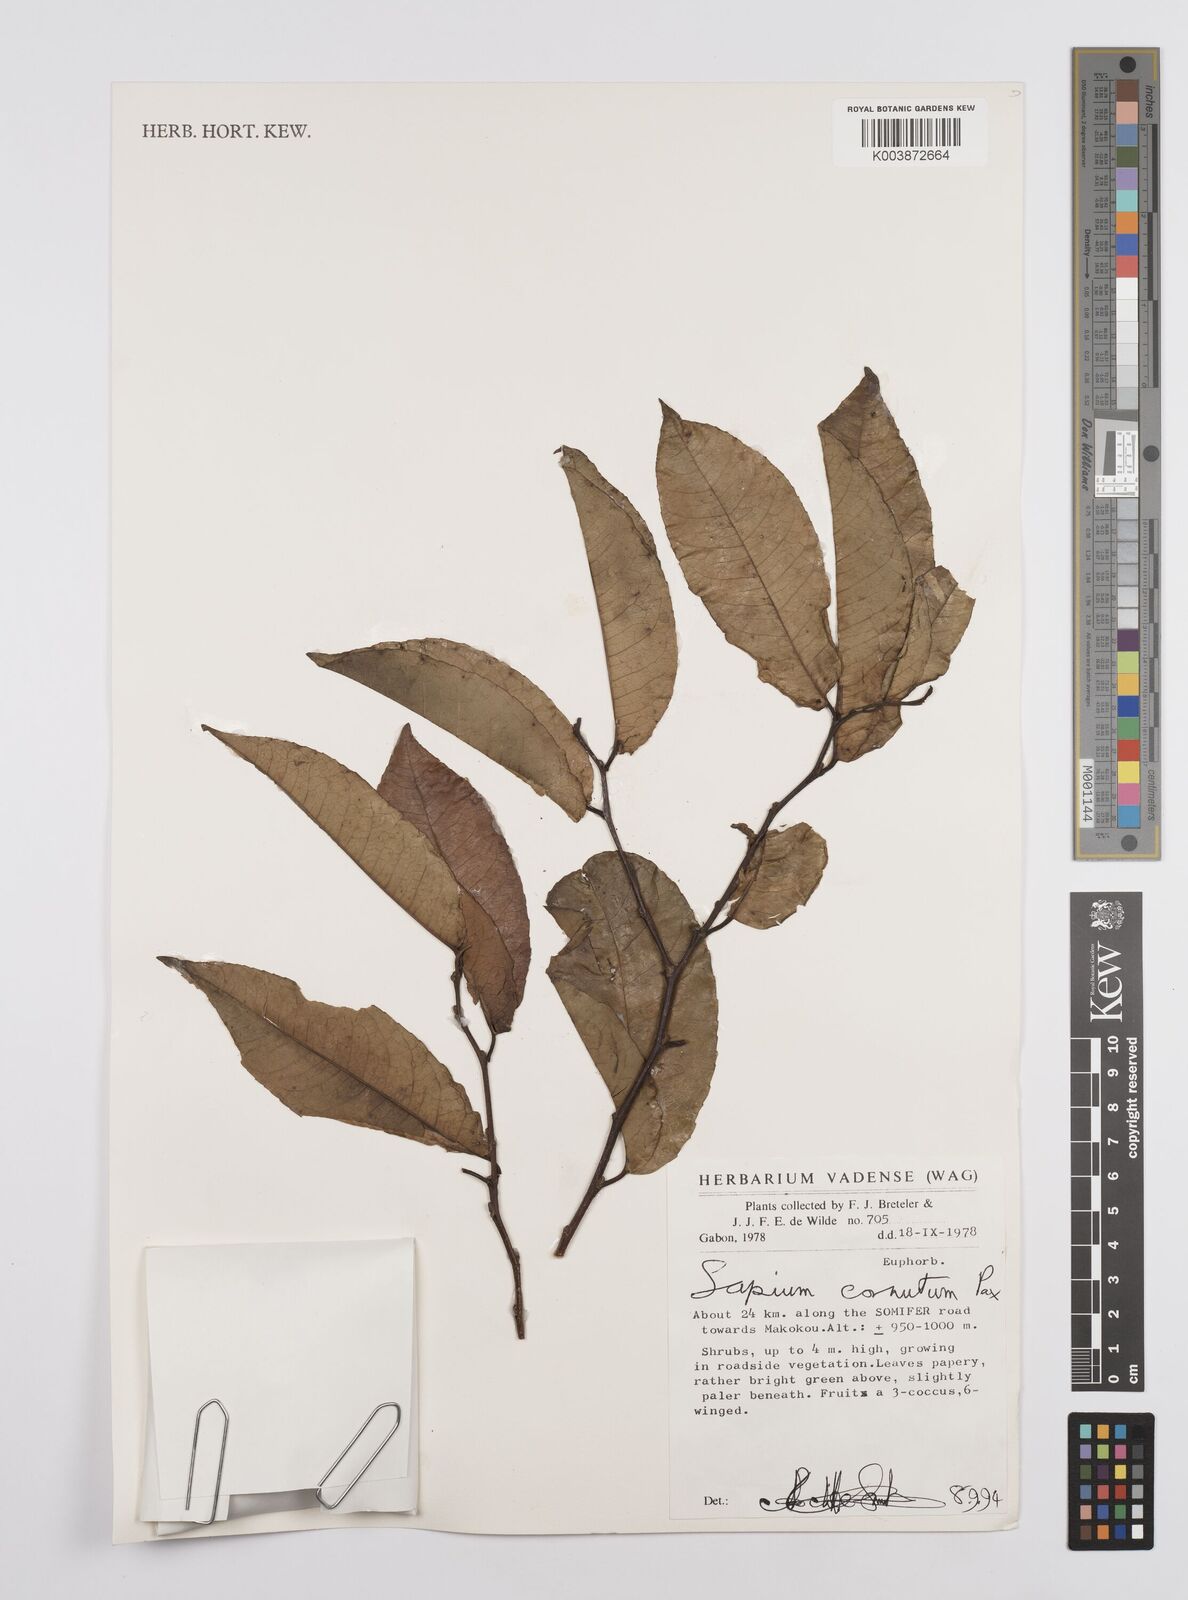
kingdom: Plantae
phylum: Tracheophyta
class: Magnoliopsida
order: Malpighiales
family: Euphorbiaceae
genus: Sclerocroton
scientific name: Sclerocroton cornutus
